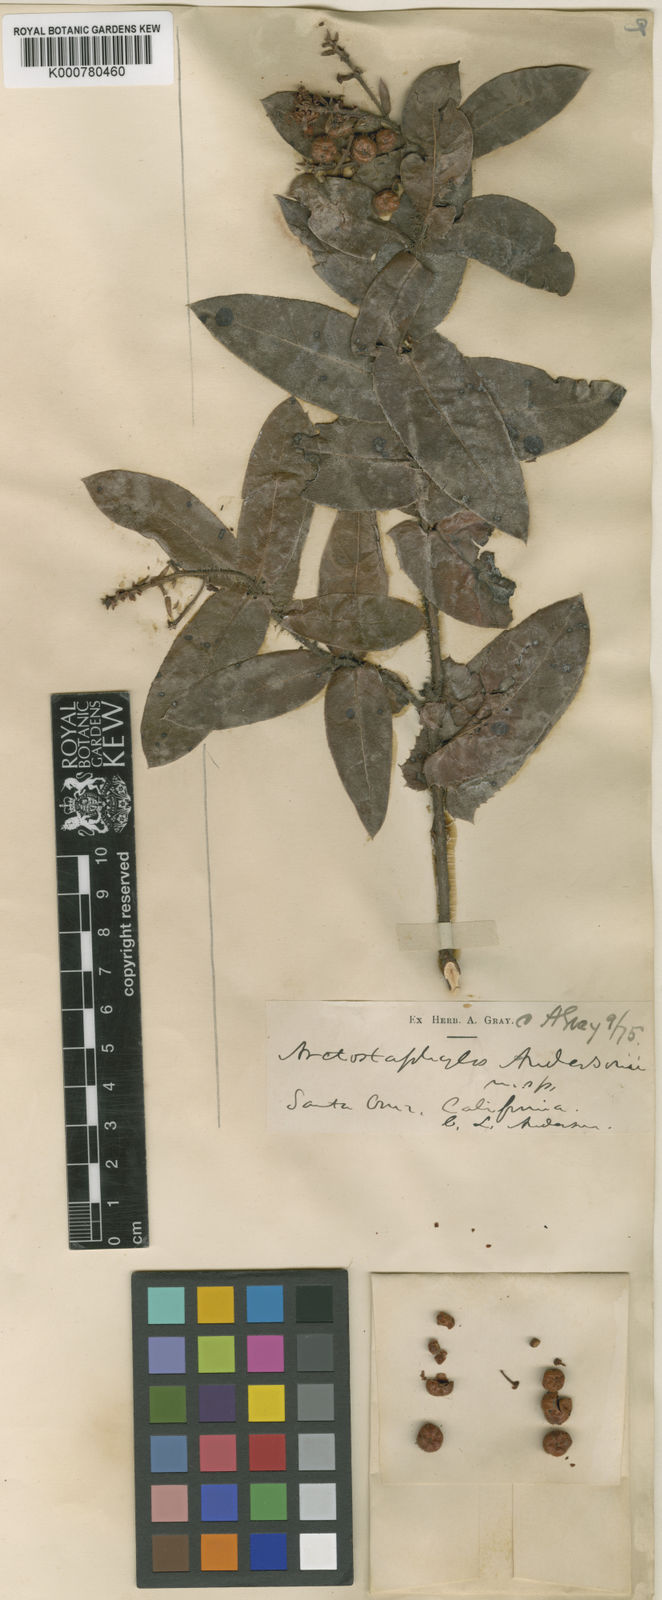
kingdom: Plantae
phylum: Tracheophyta
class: Magnoliopsida
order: Ericales
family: Ericaceae
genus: Arctostaphylos
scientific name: Arctostaphylos andersonii
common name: Santa cruz manzanita
